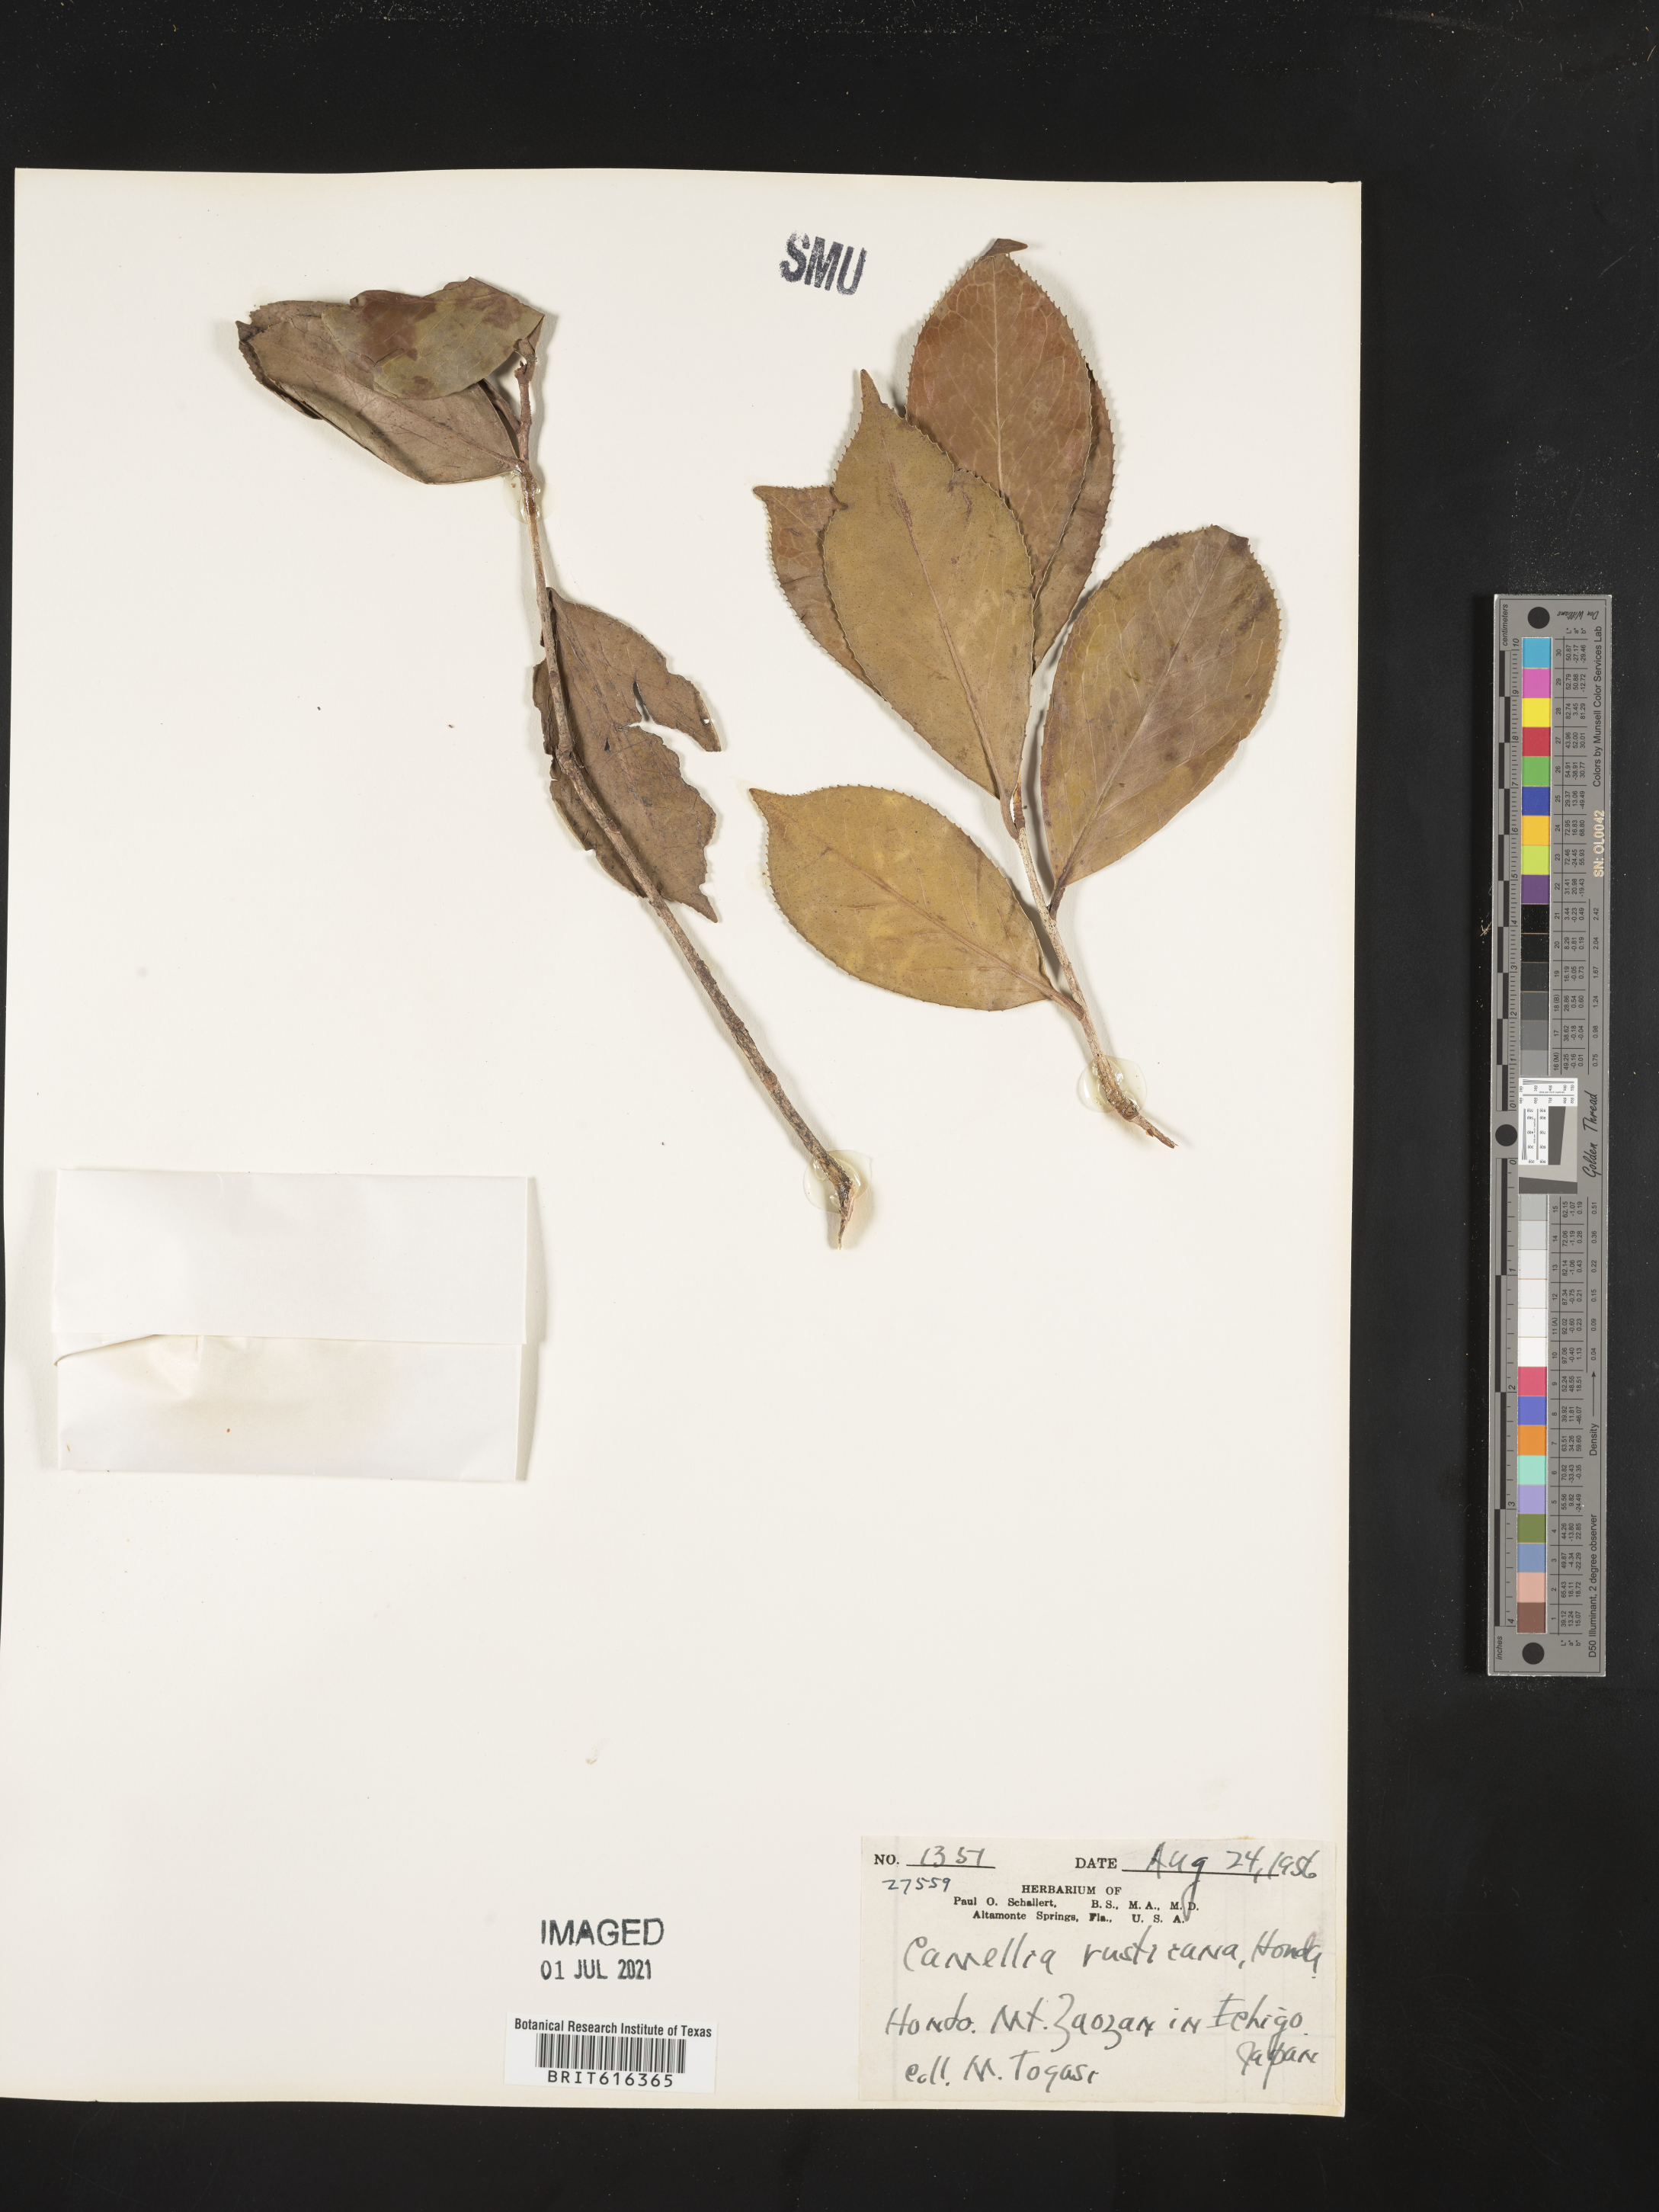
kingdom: Plantae
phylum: Tracheophyta
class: Magnoliopsida
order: Ericales
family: Theaceae
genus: Camellia
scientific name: Camellia japonica
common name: Camellia
